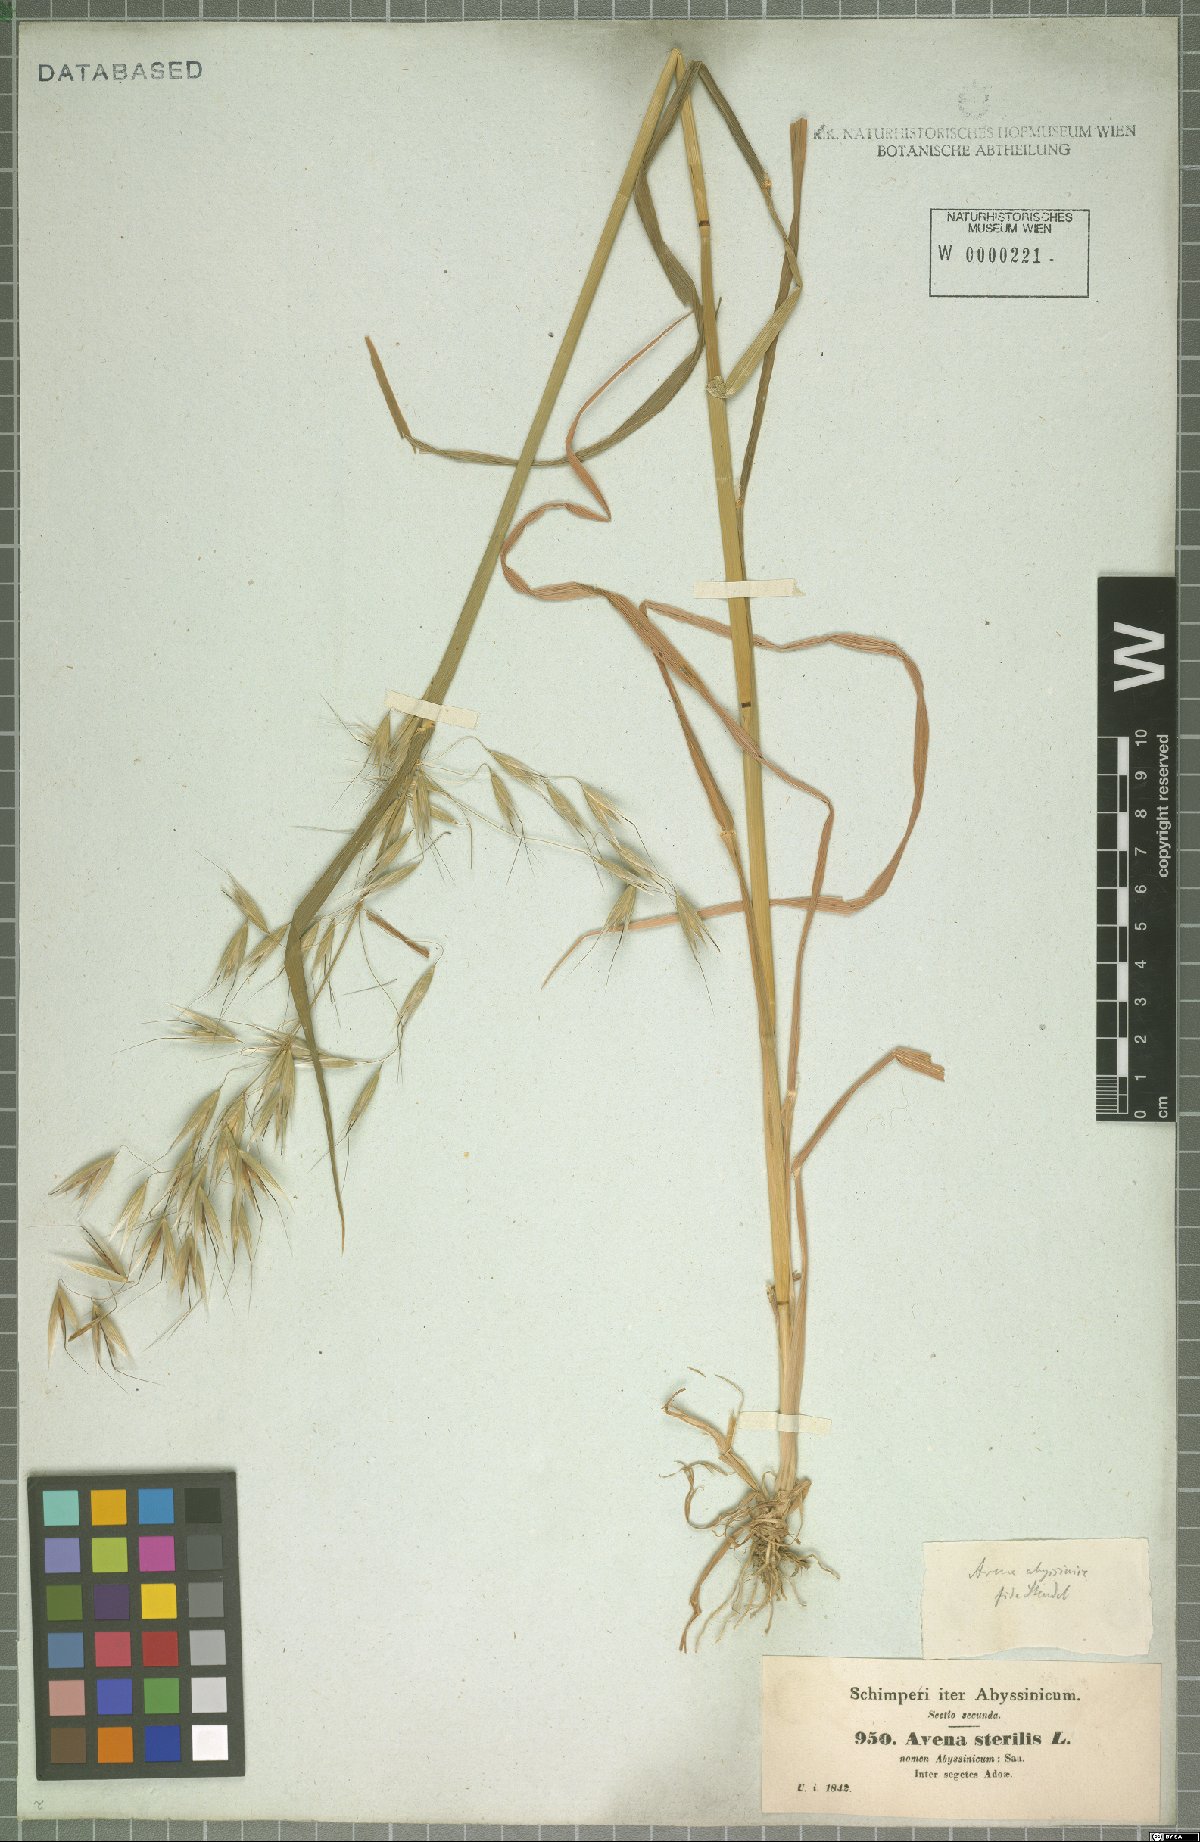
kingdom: Plantae
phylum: Tracheophyta
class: Liliopsida
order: Poales
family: Poaceae
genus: Avena
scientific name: Avena abyssinica
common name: Ethiopian oat
